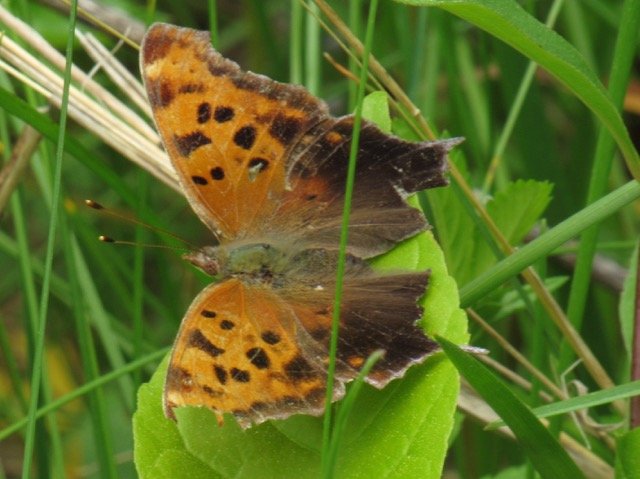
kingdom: Animalia
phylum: Arthropoda
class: Insecta
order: Lepidoptera
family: Nymphalidae
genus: Polygonia
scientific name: Polygonia interrogationis
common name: Question Mark
